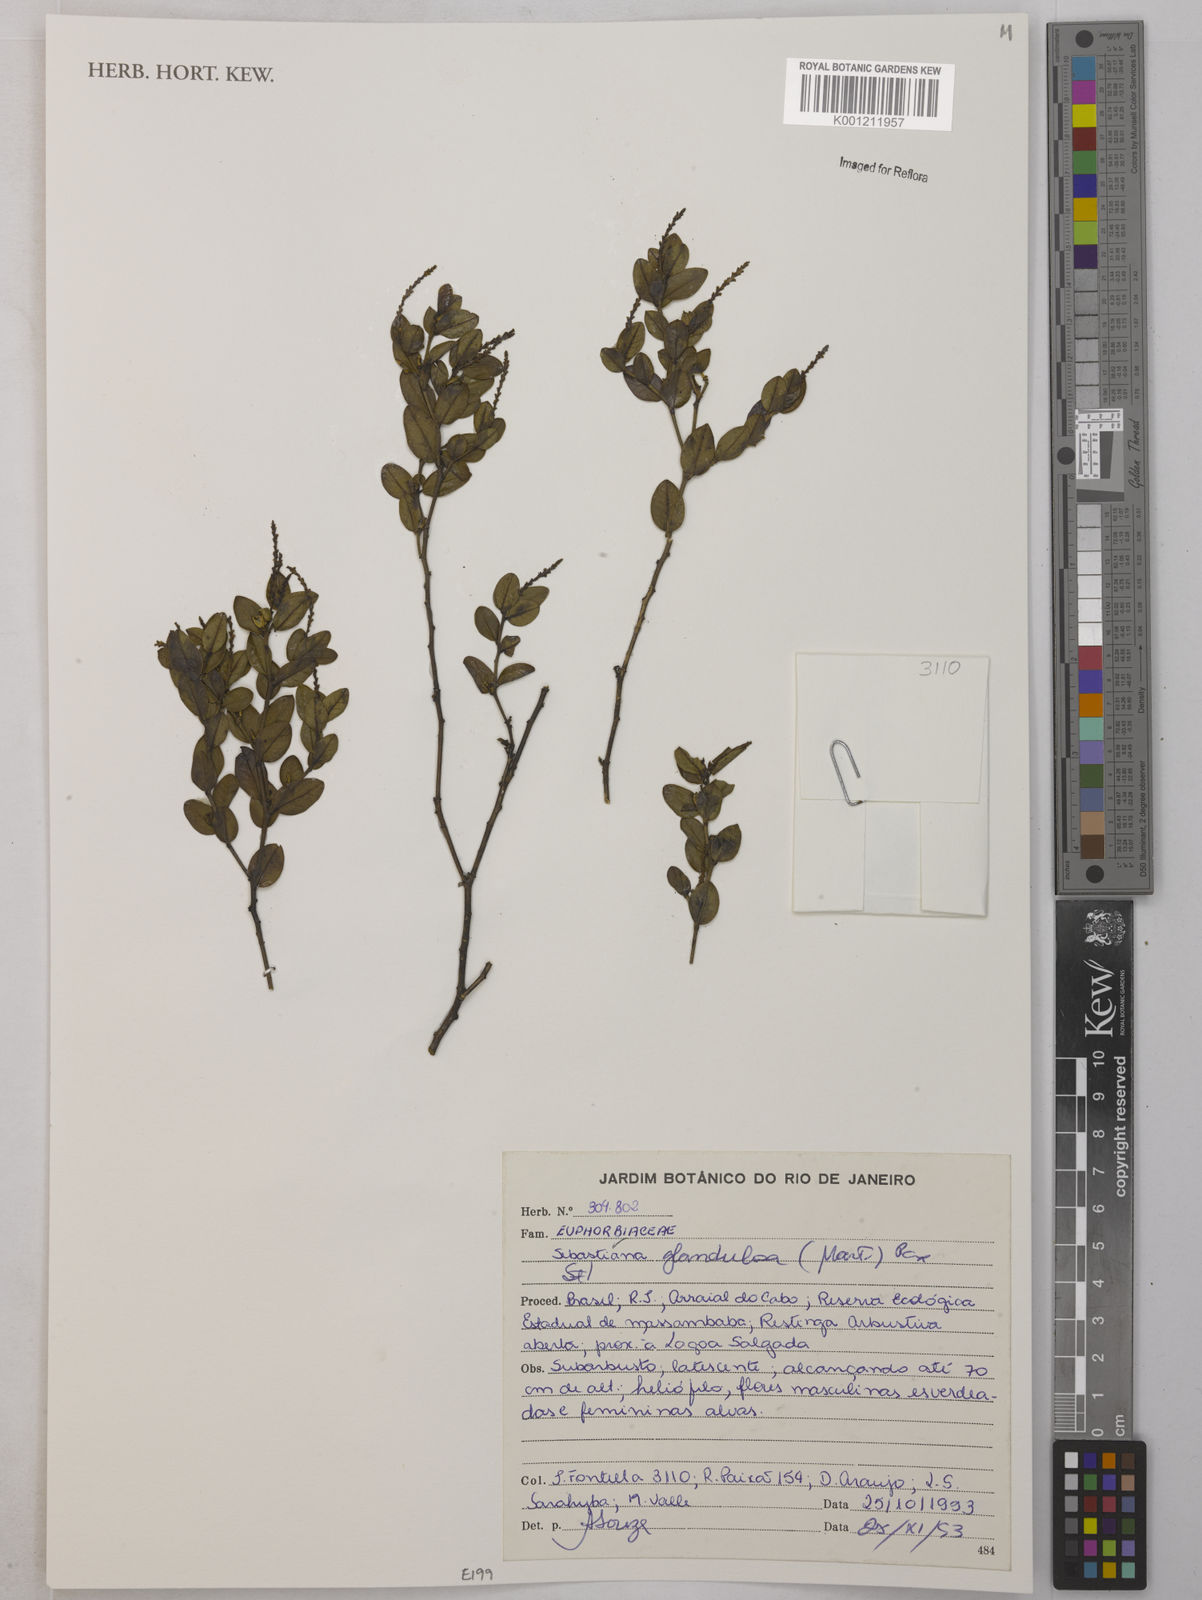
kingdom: Plantae
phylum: Tracheophyta
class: Magnoliopsida
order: Malpighiales
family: Euphorbiaceae
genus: Sebastiania
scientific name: Sebastiania
